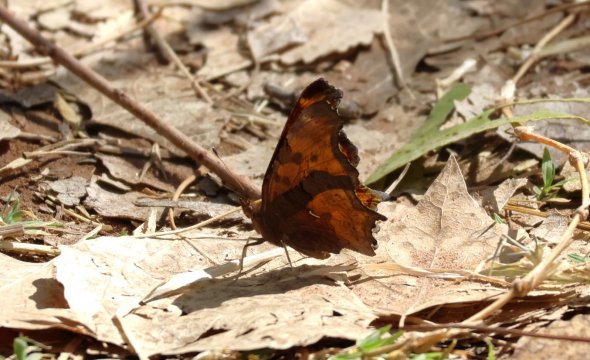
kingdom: Animalia
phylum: Arthropoda
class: Insecta
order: Lepidoptera
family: Nymphalidae
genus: Polygonia
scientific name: Polygonia satyrus
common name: Satyr Comma
